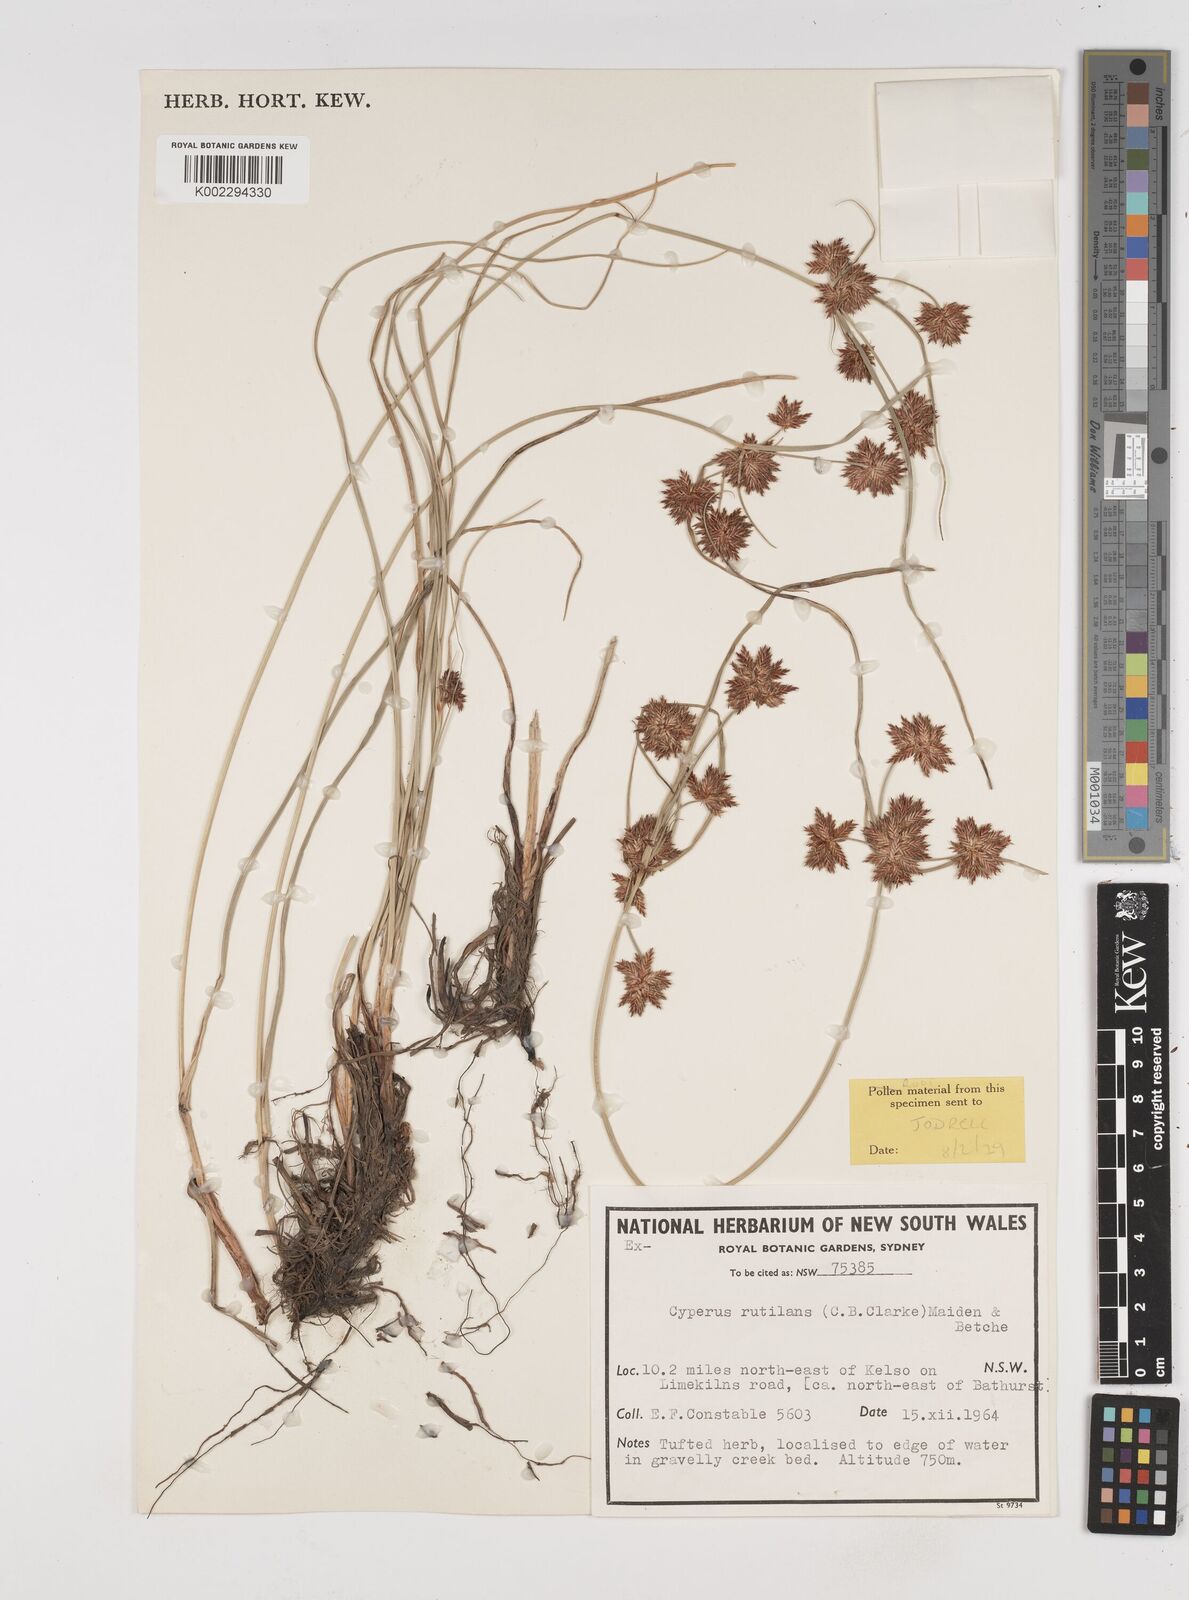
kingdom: Plantae
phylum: Tracheophyta
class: Liliopsida
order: Poales
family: Cyperaceae
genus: Cyperus
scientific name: Cyperus lhotskyanus
